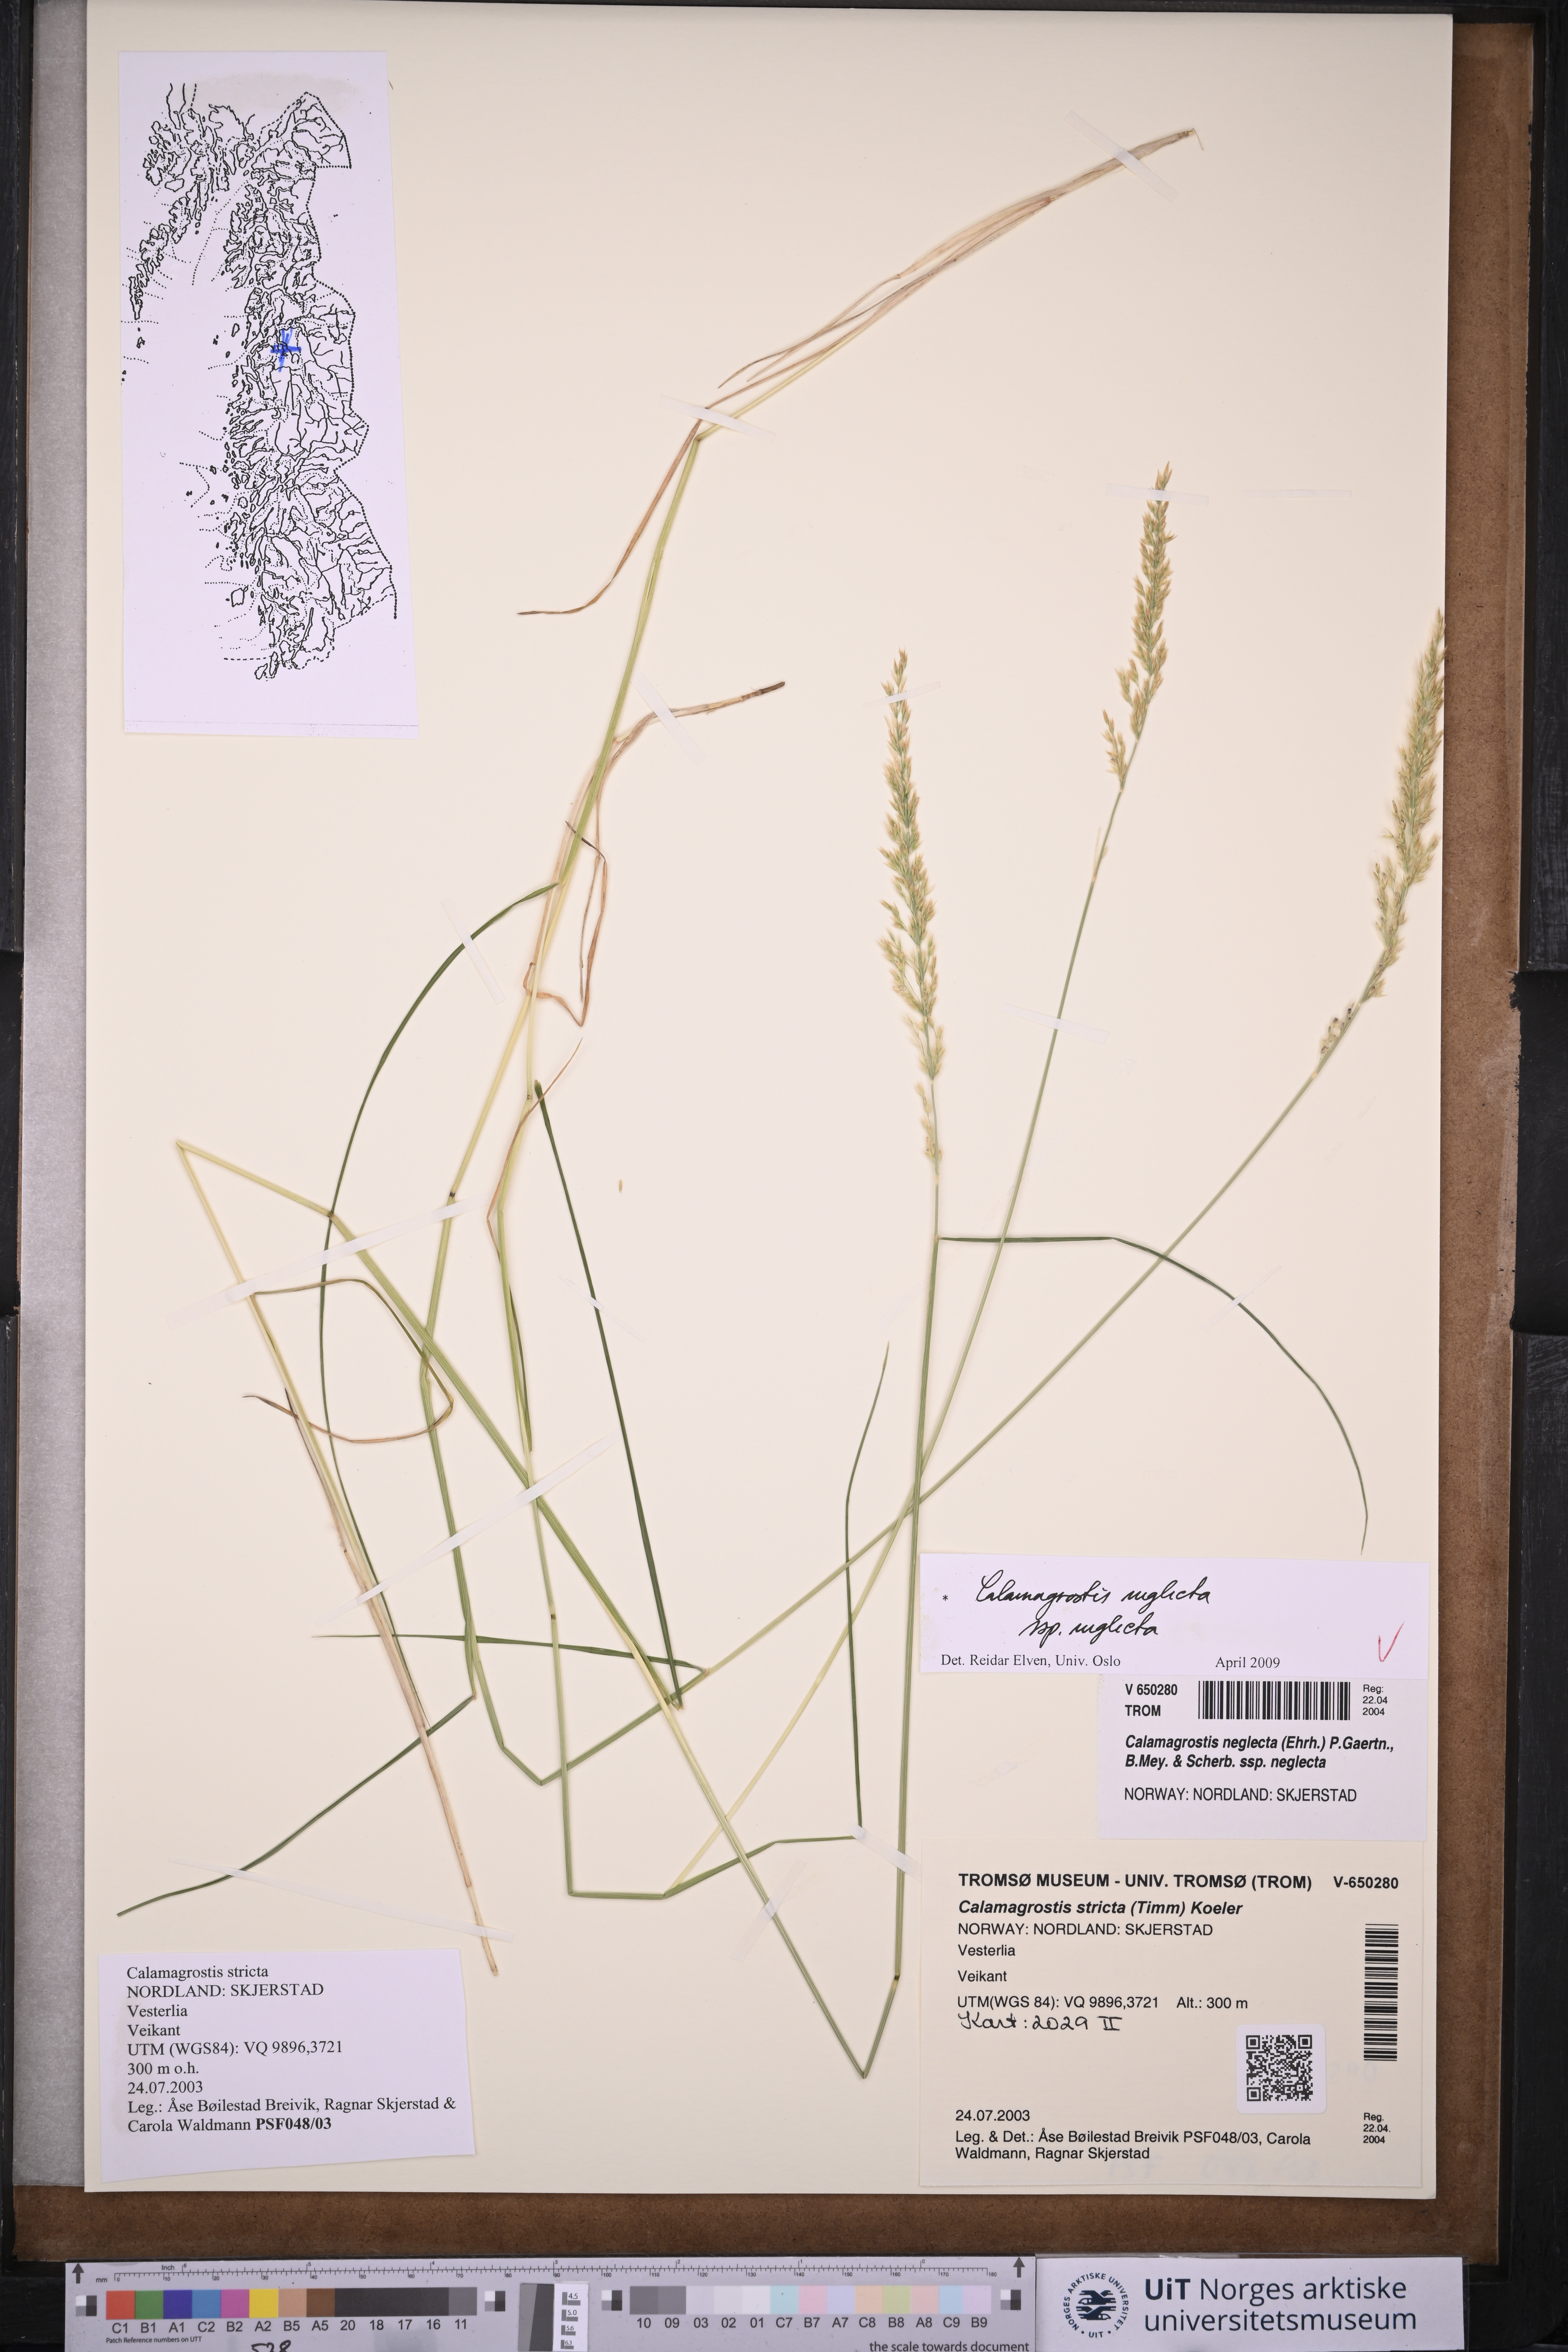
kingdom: Plantae
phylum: Tracheophyta
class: Liliopsida
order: Poales
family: Poaceae
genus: Achnatherum
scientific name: Achnatherum calamagrostis
